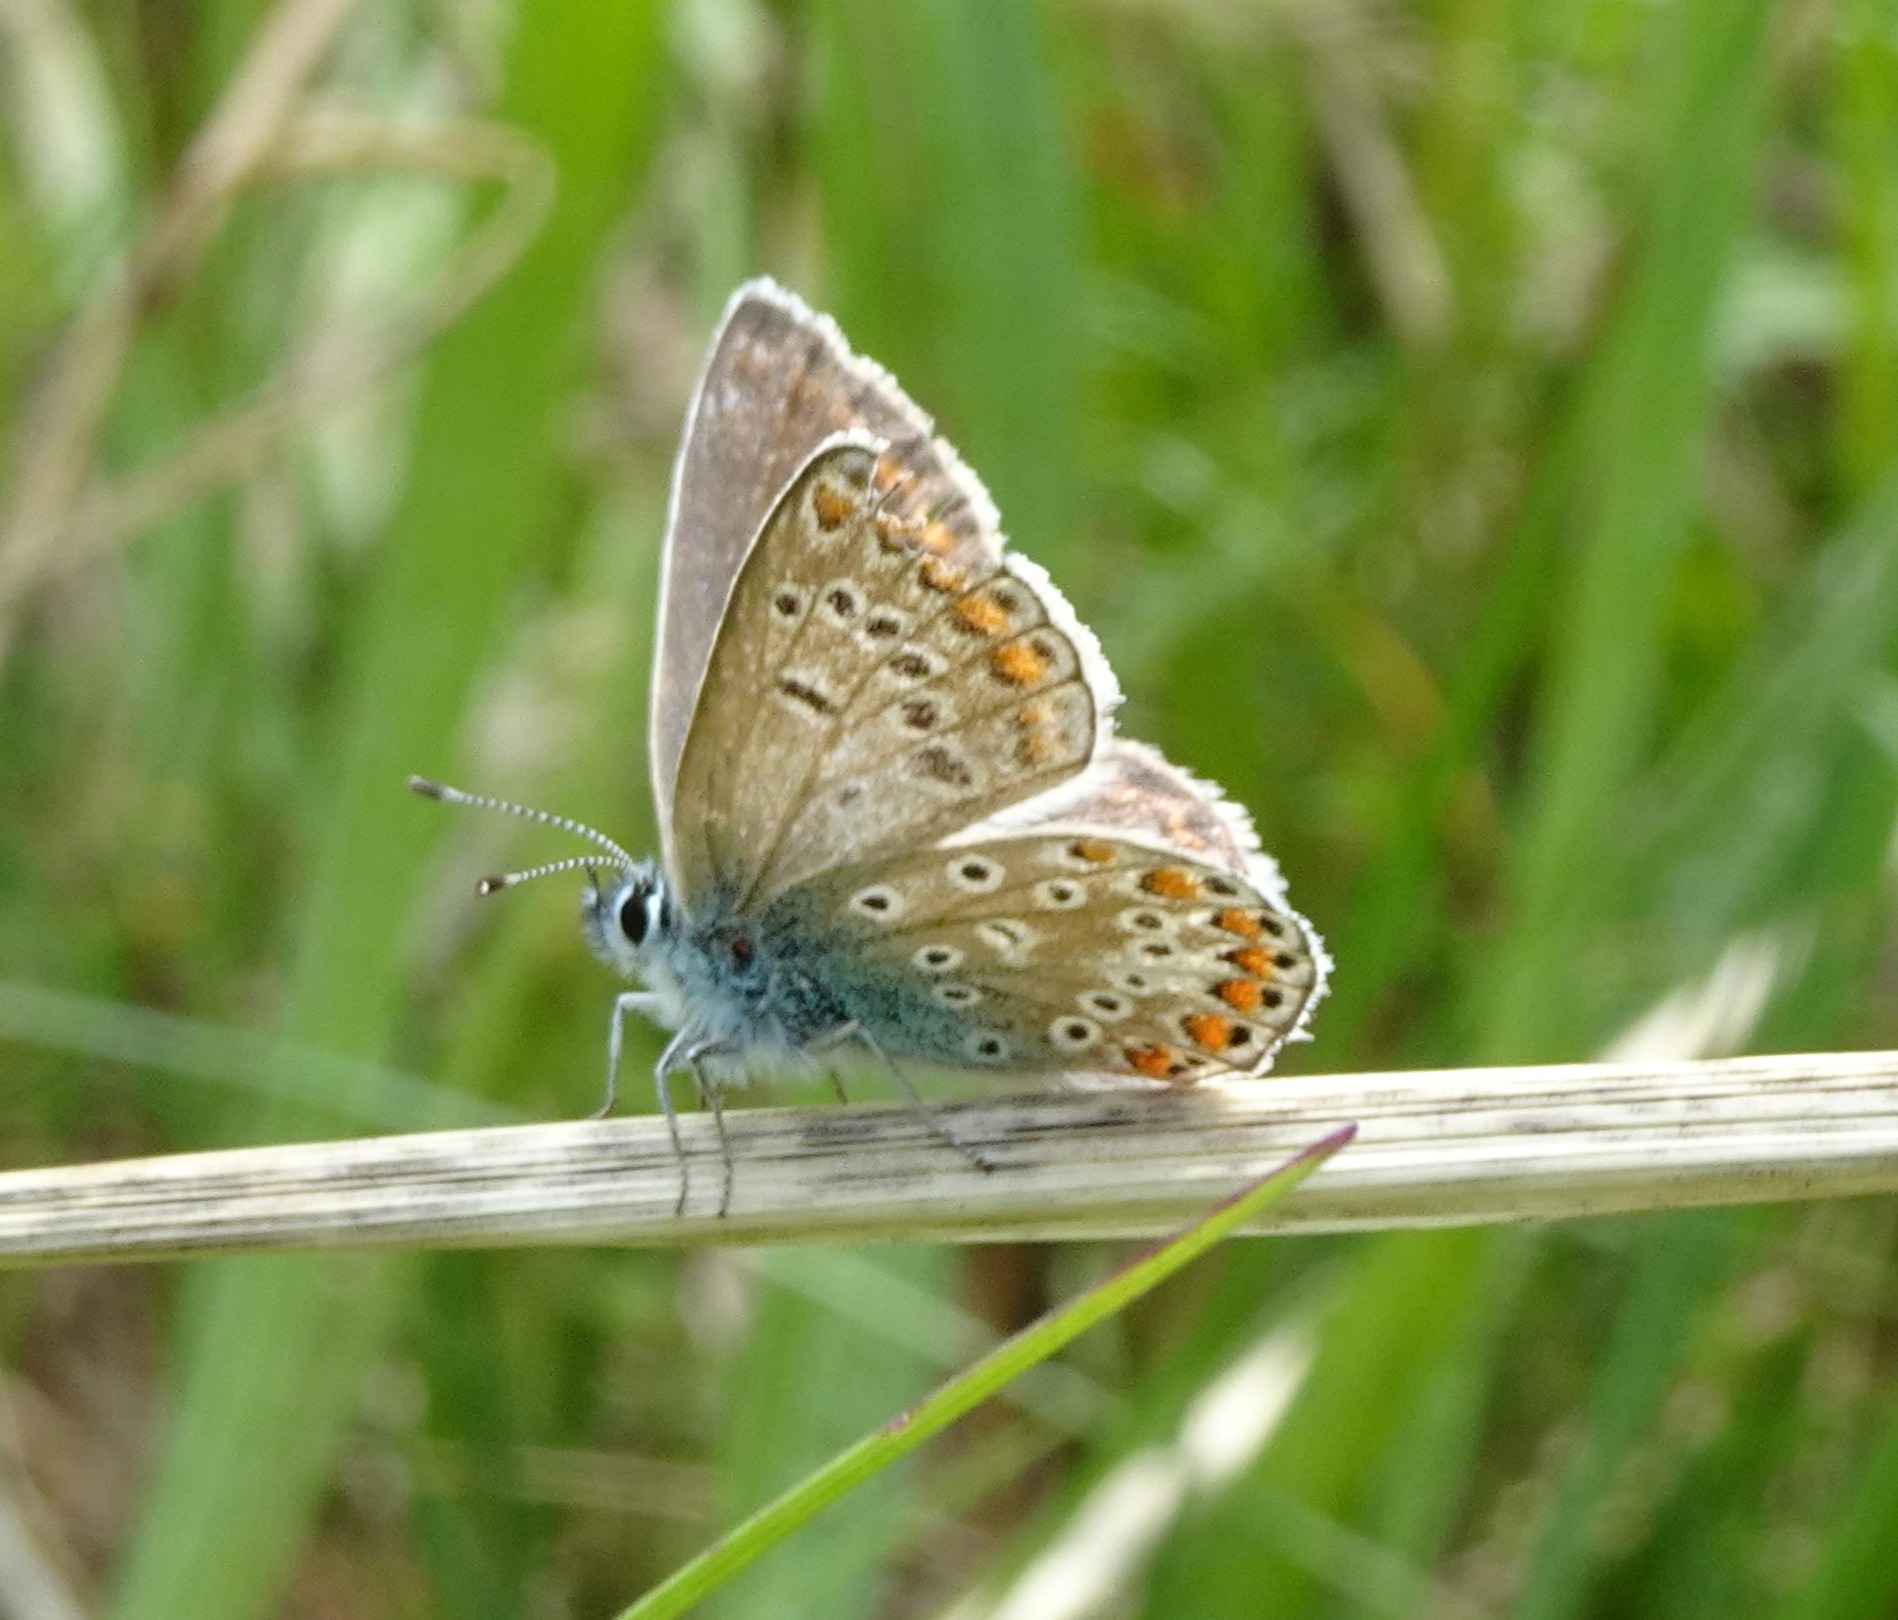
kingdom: Animalia
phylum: Arthropoda
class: Insecta
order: Lepidoptera
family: Lycaenidae
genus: Polyommatus
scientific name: Polyommatus icarus
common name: Almindelig blåfugl
